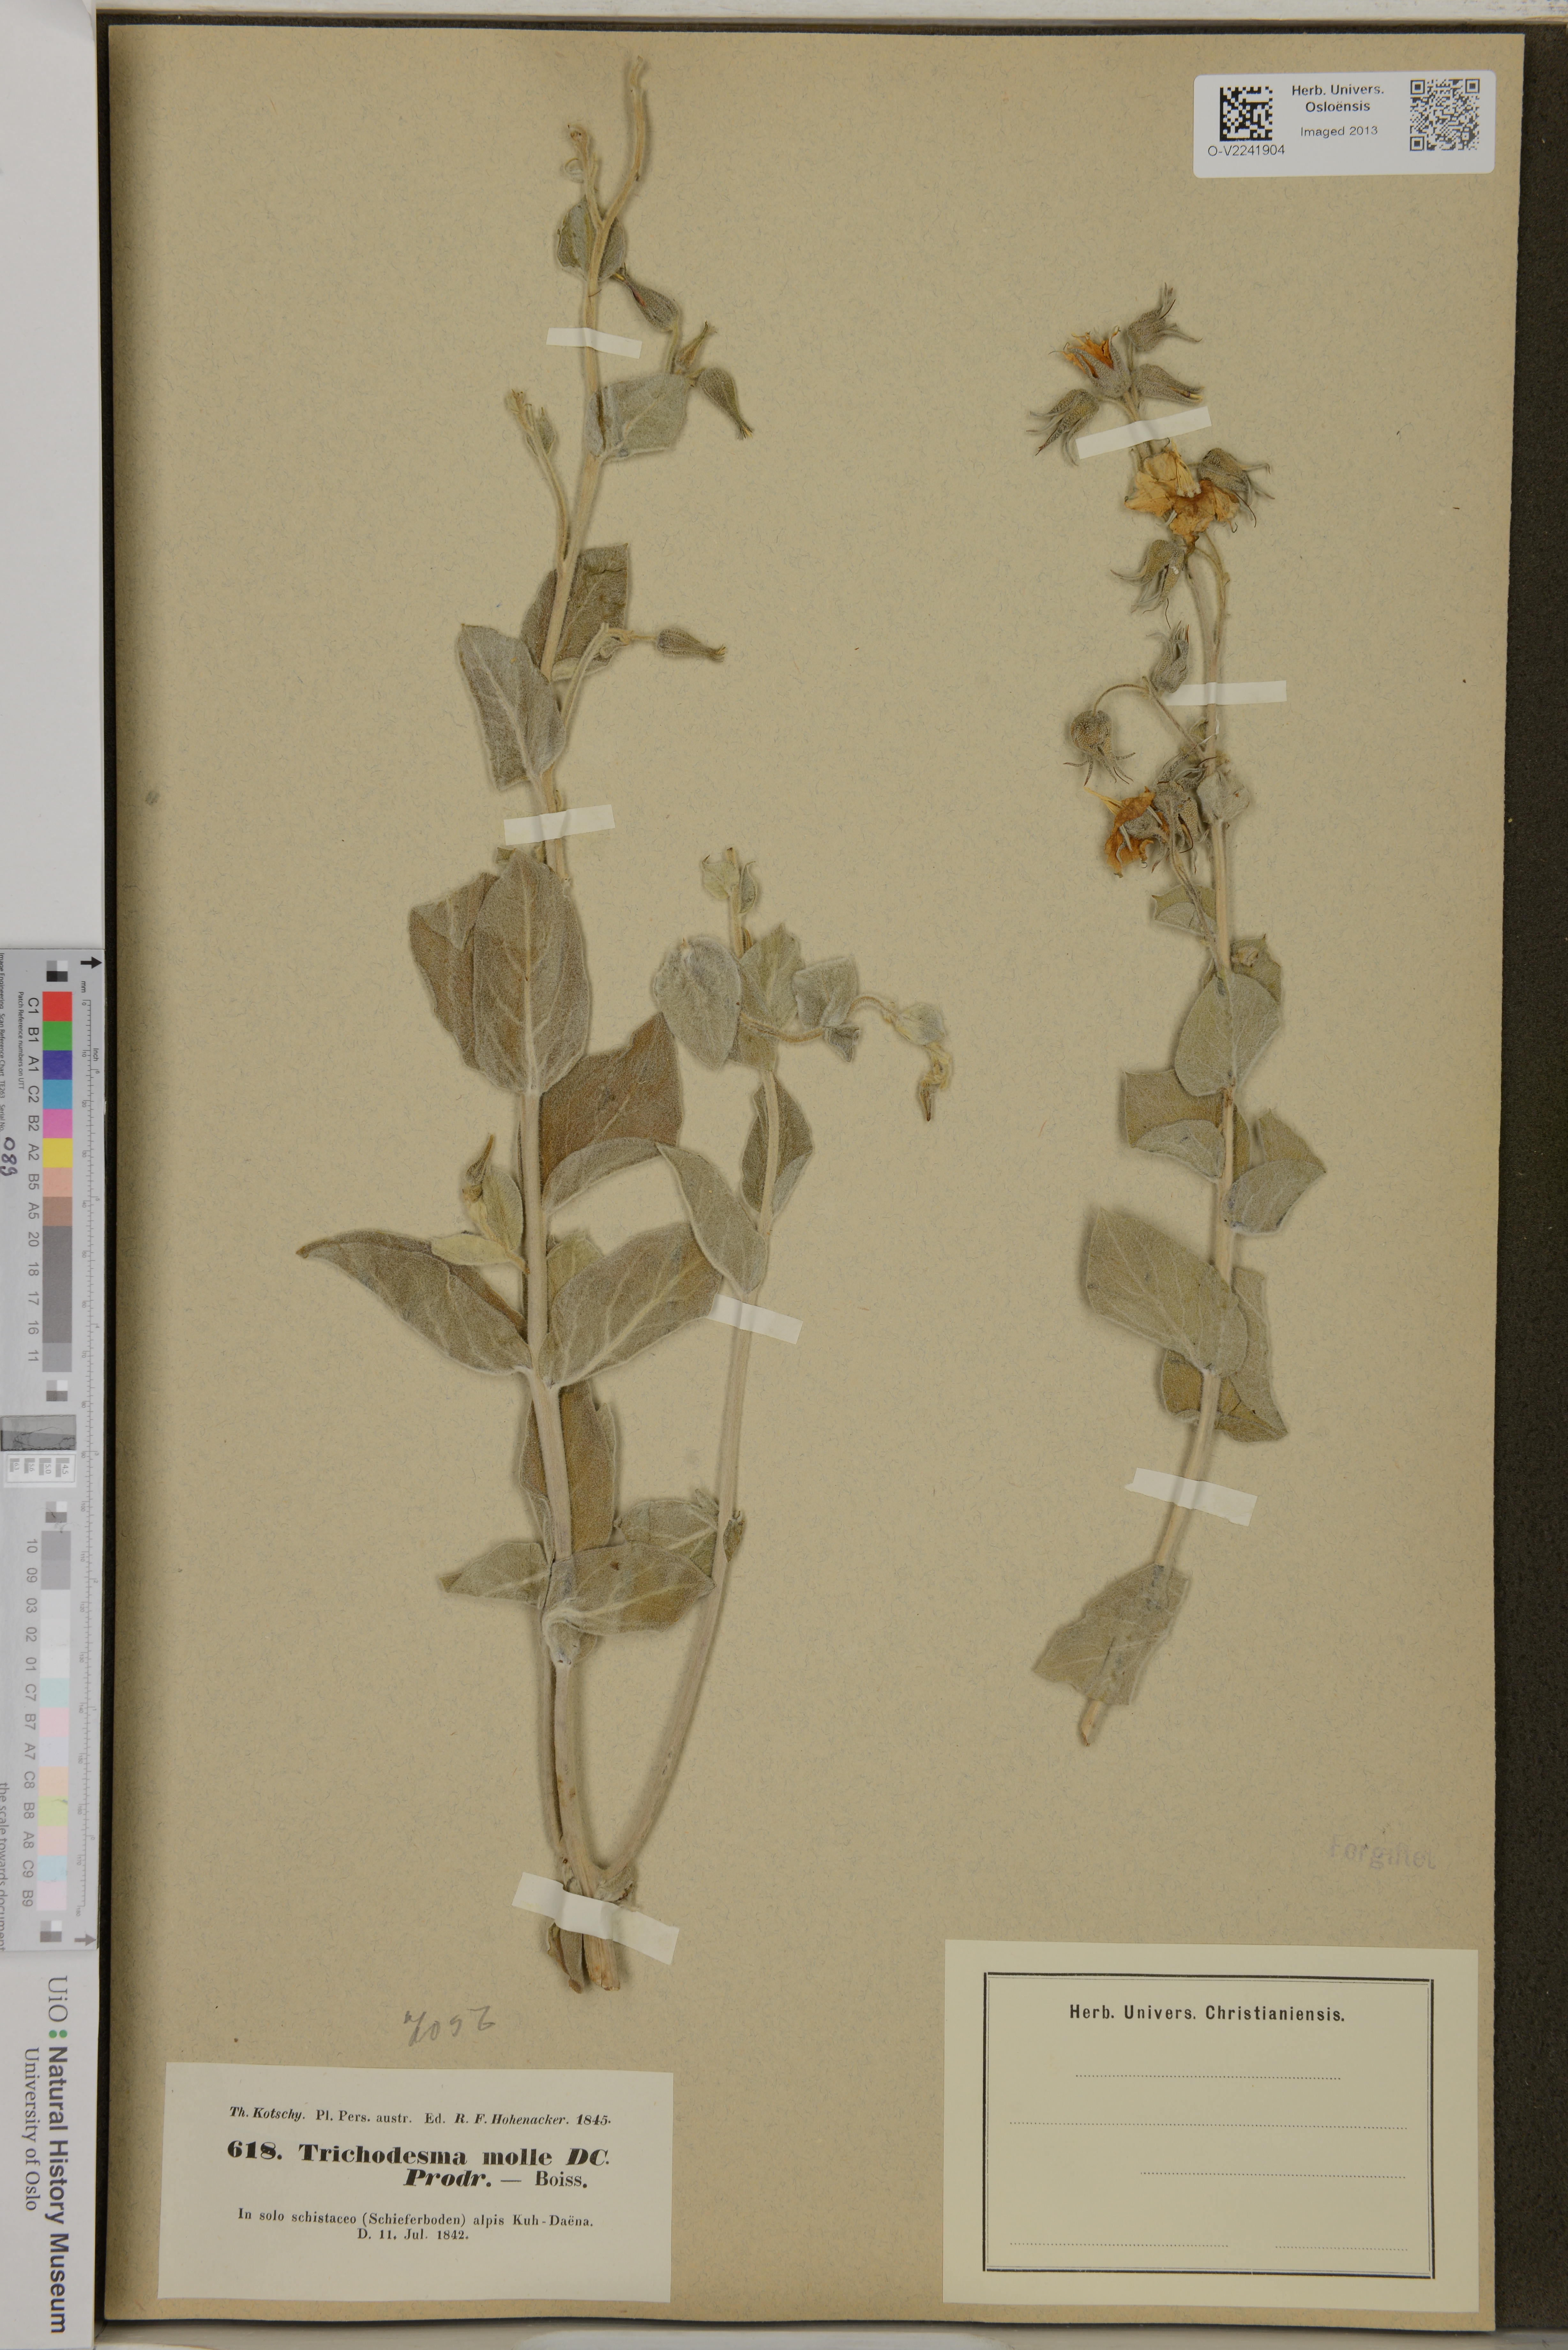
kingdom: Plantae
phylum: Tracheophyta
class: Magnoliopsida
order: Boraginales
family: Boraginaceae
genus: Trichodesma
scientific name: Trichodesma incanum
